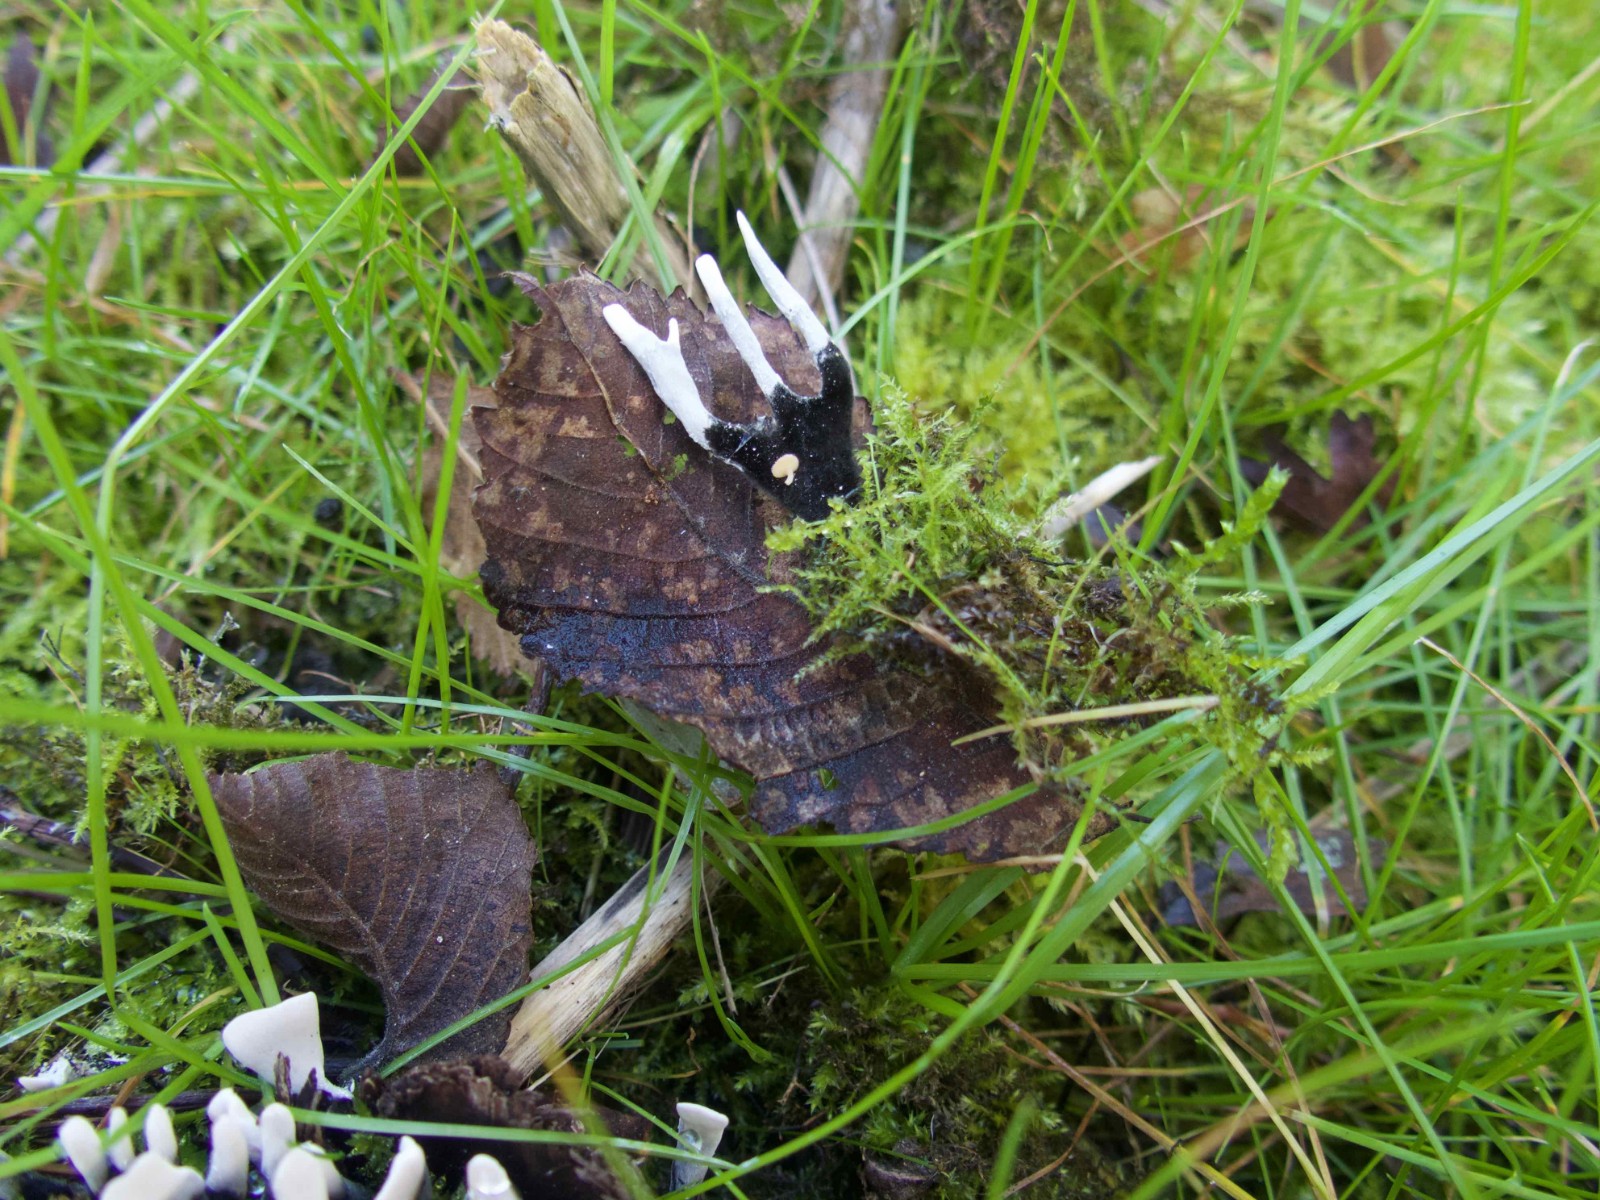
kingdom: Fungi
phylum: Ascomycota
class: Sordariomycetes
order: Xylariales
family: Xylariaceae
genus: Xylaria
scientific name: Xylaria hypoxylon
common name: grenet stødsvamp
